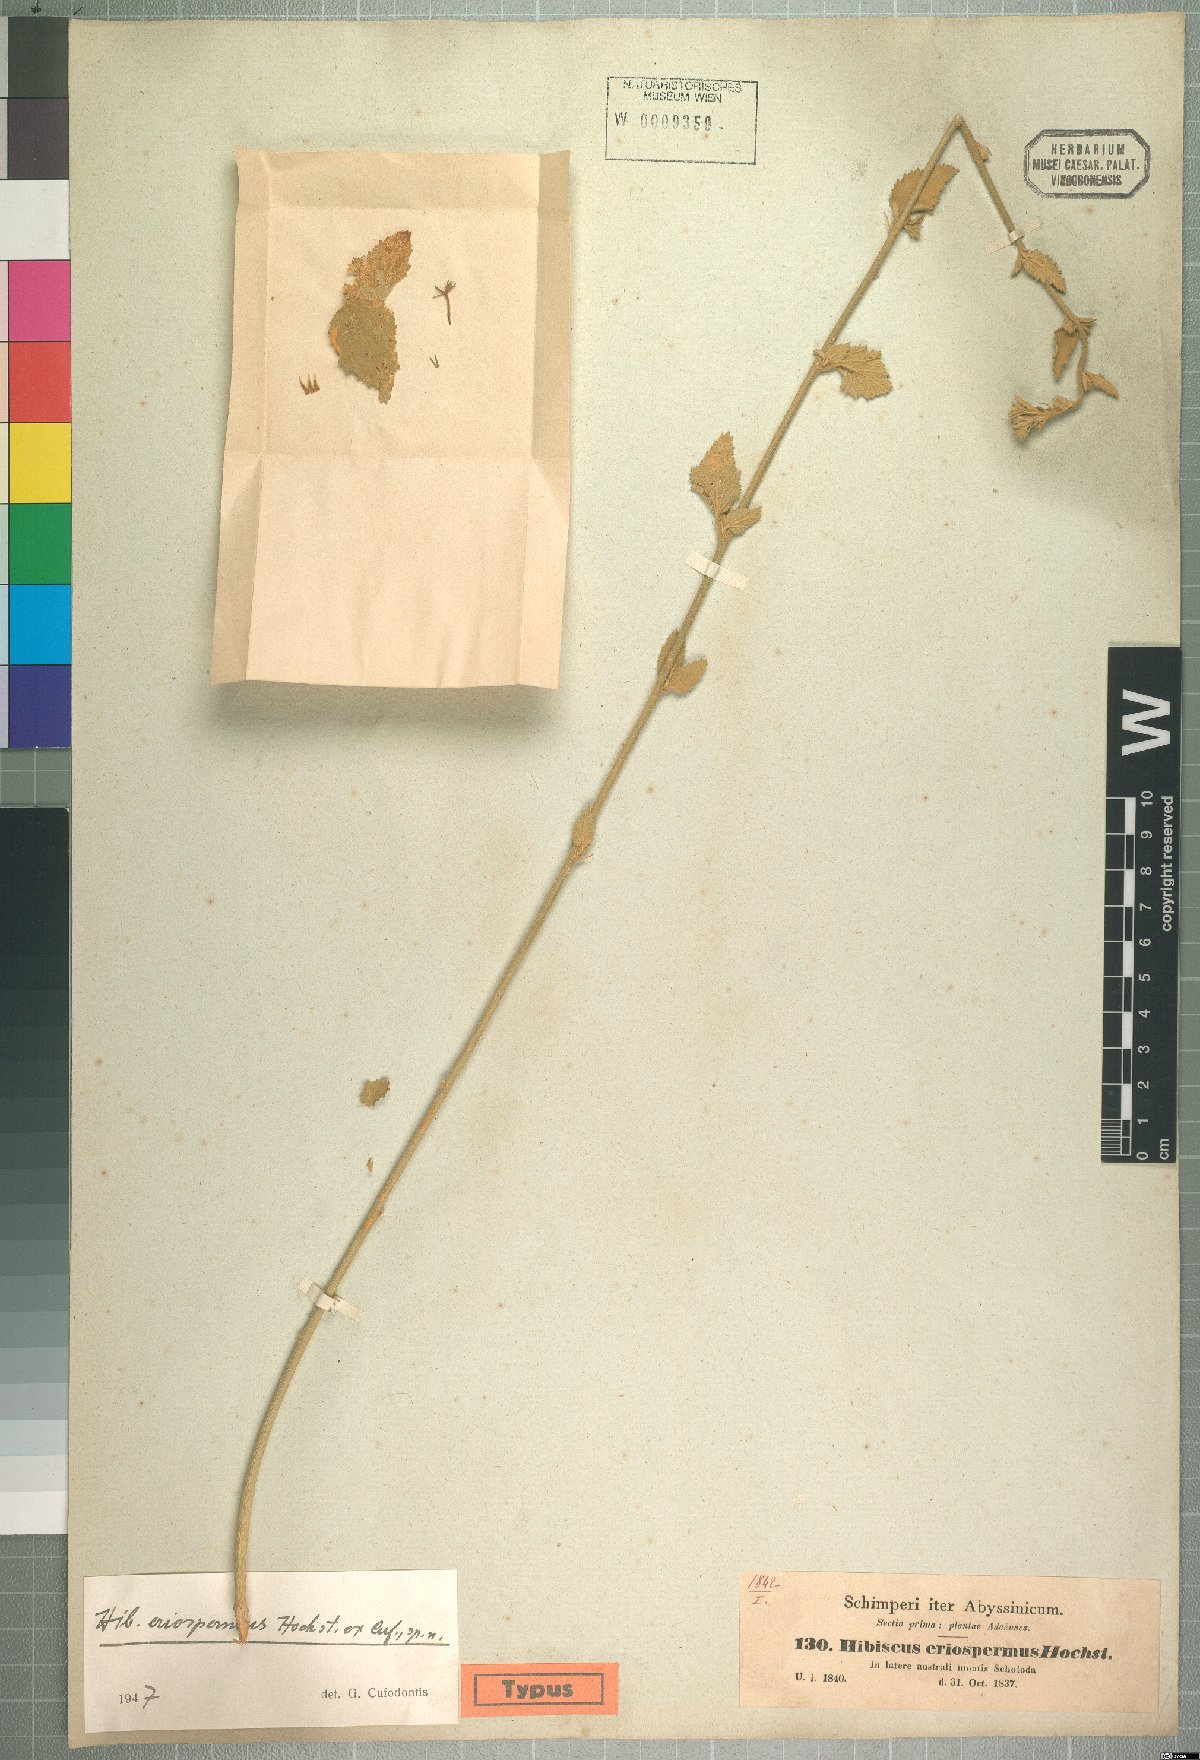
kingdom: Plantae
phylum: Tracheophyta
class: Magnoliopsida
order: Malvales
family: Malvaceae
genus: Hibiscus
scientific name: Hibiscus eriospermus
